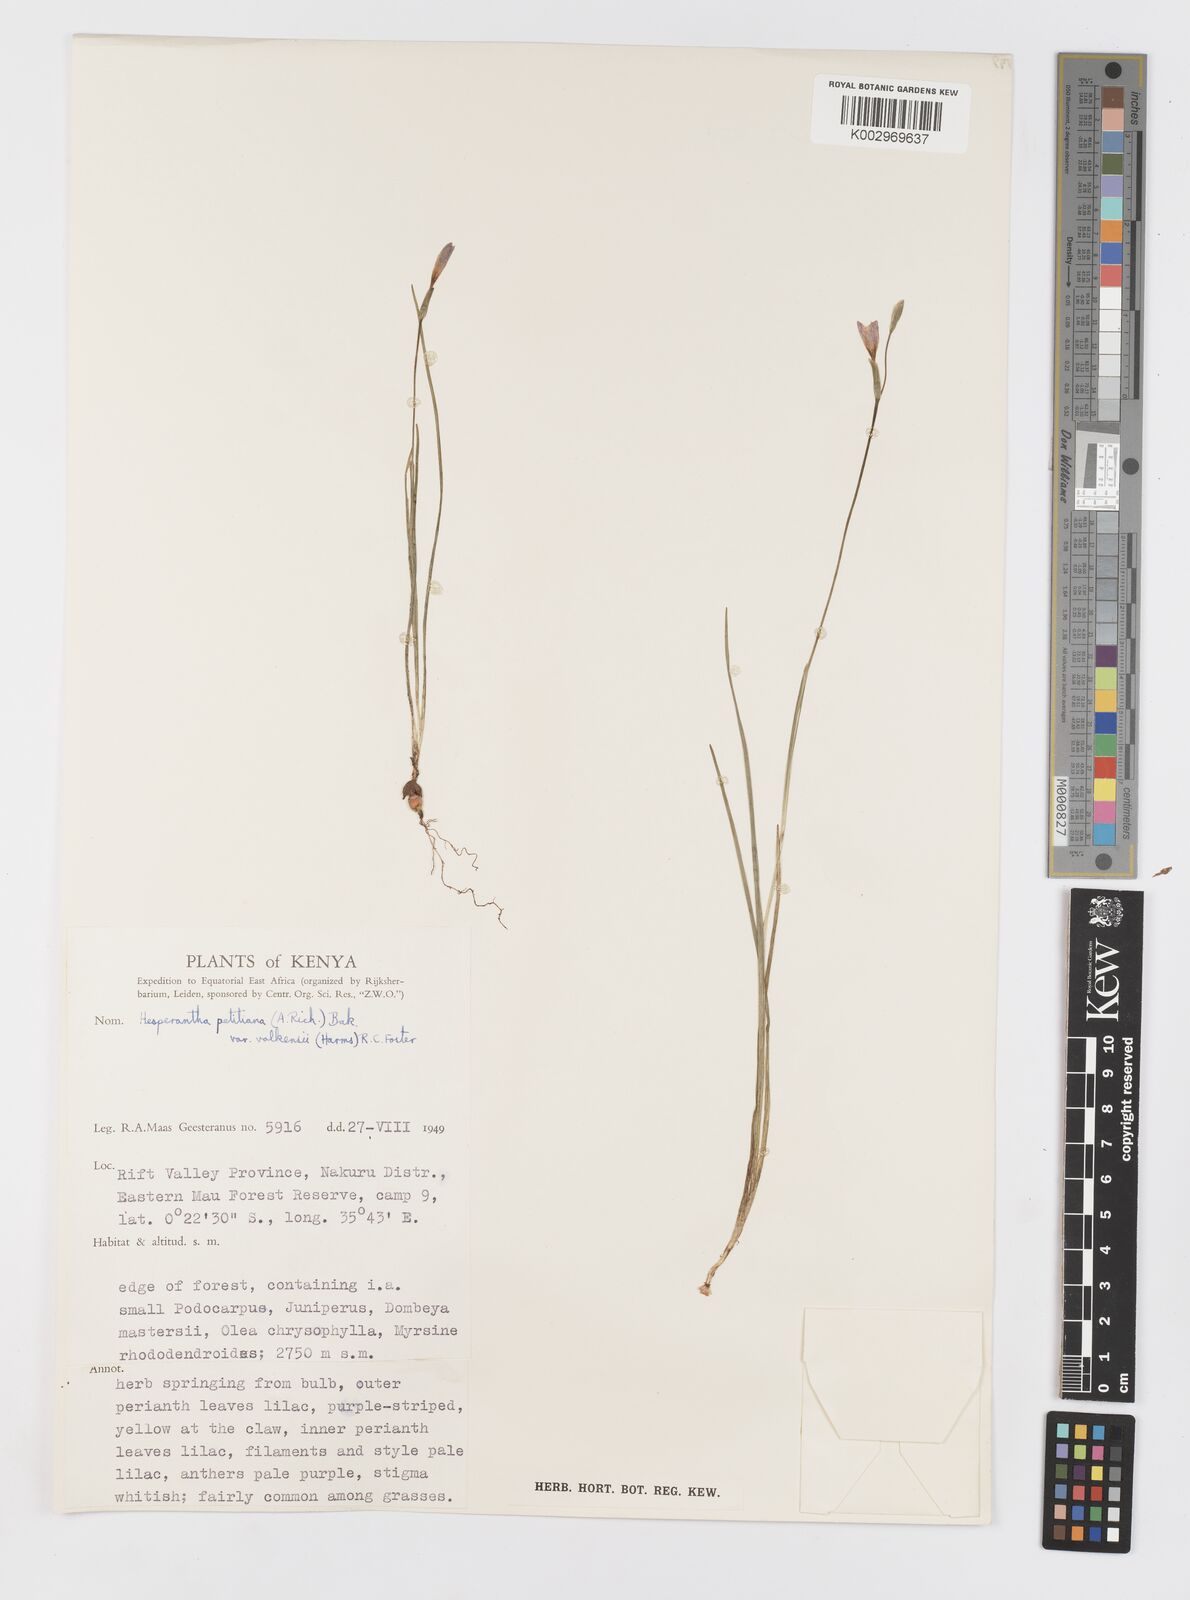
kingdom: Plantae
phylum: Tracheophyta
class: Liliopsida
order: Asparagales
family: Iridaceae
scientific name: Iridaceae
